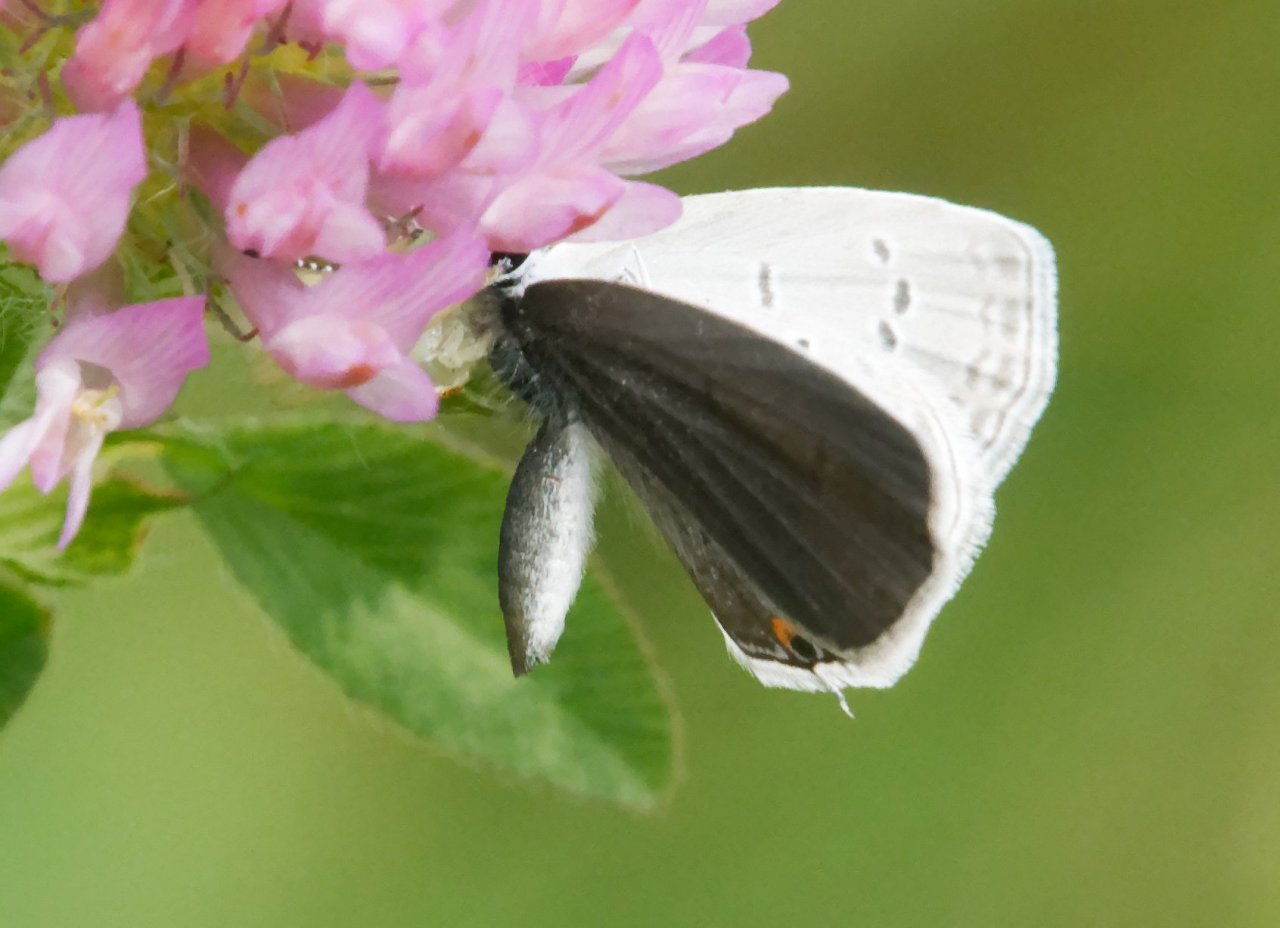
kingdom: Animalia
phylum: Arthropoda
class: Insecta
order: Lepidoptera
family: Lycaenidae
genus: Elkalyce
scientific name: Elkalyce comyntas
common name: Eastern Tailed-Blue
